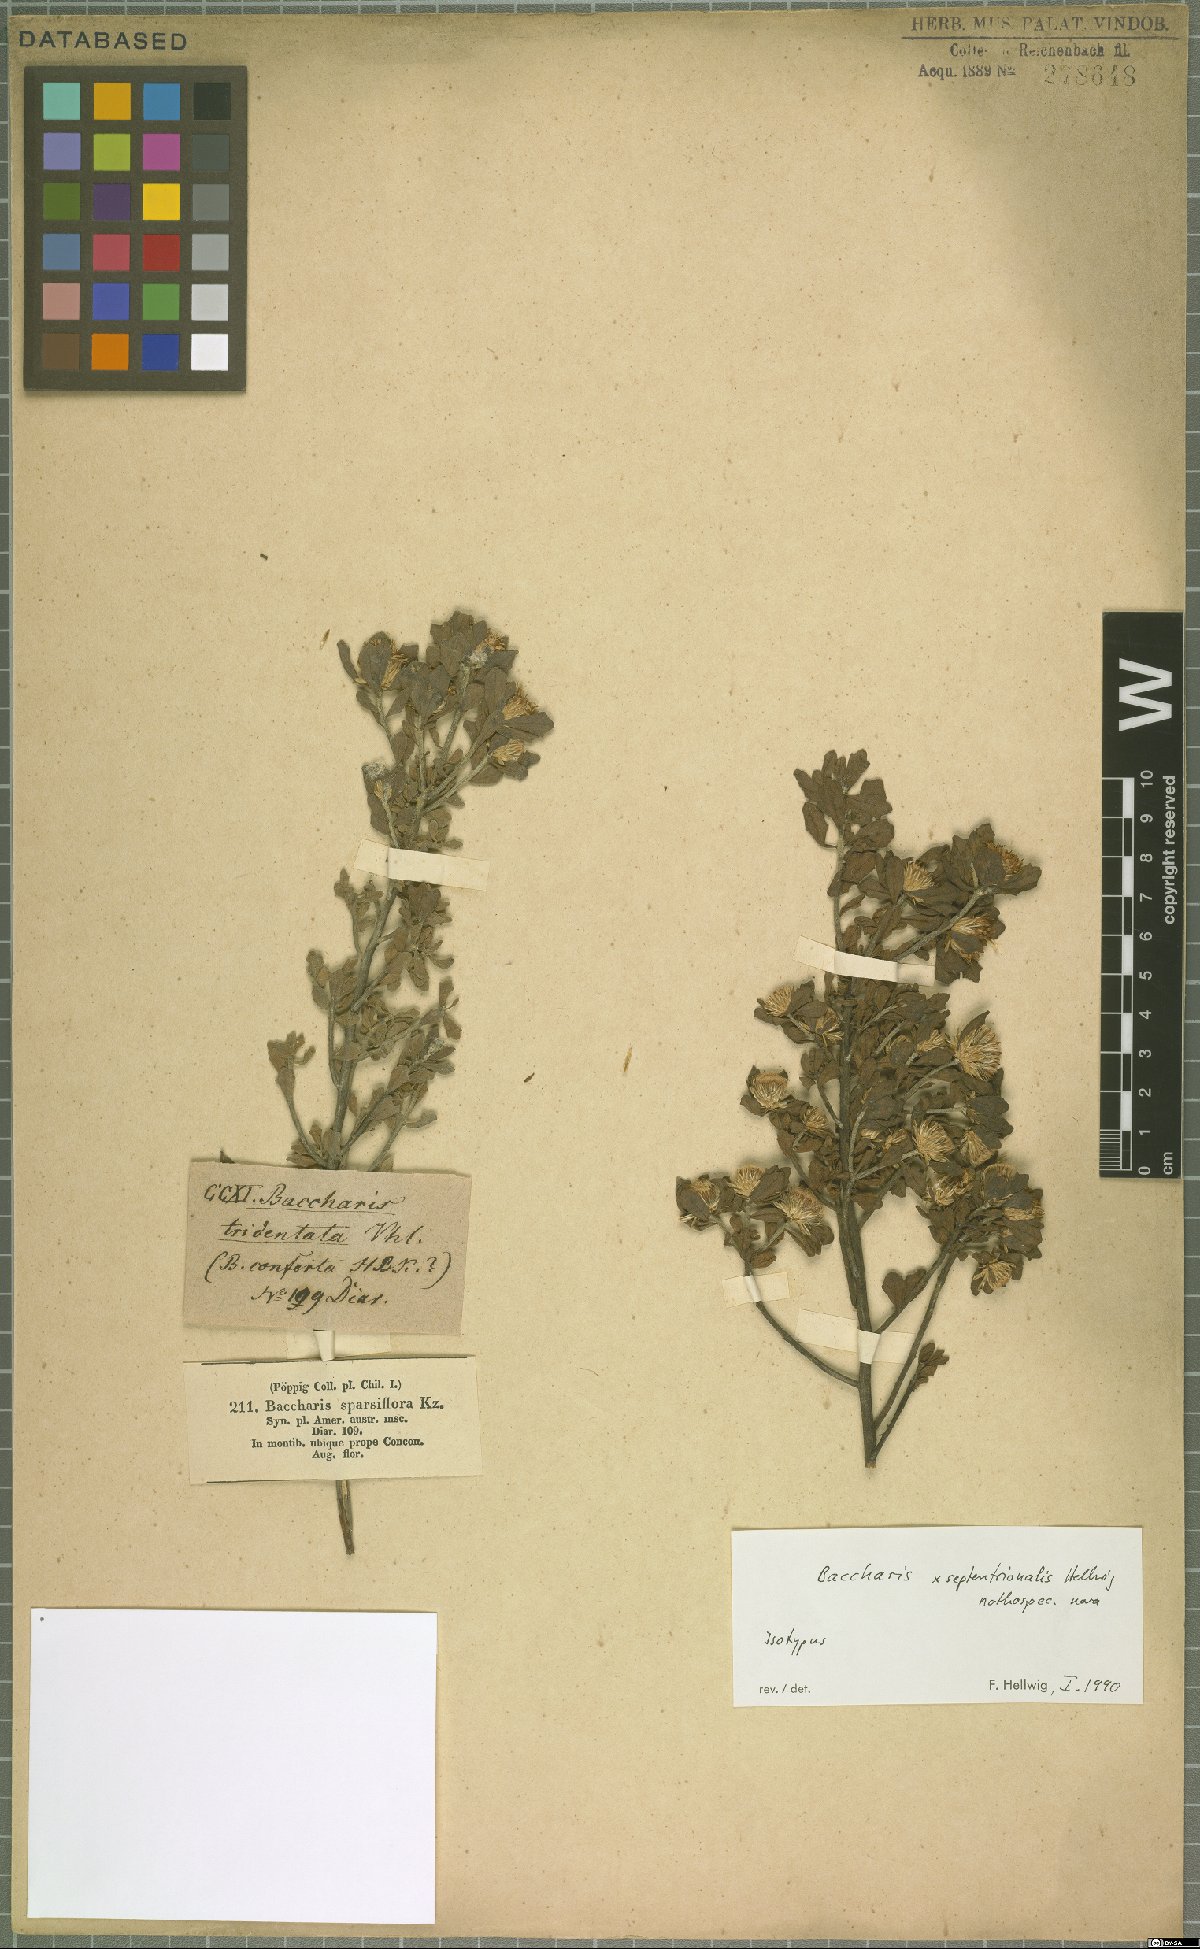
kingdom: Plantae
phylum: Tracheophyta
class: Magnoliopsida
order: Asterales
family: Asteraceae
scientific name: Asteraceae
